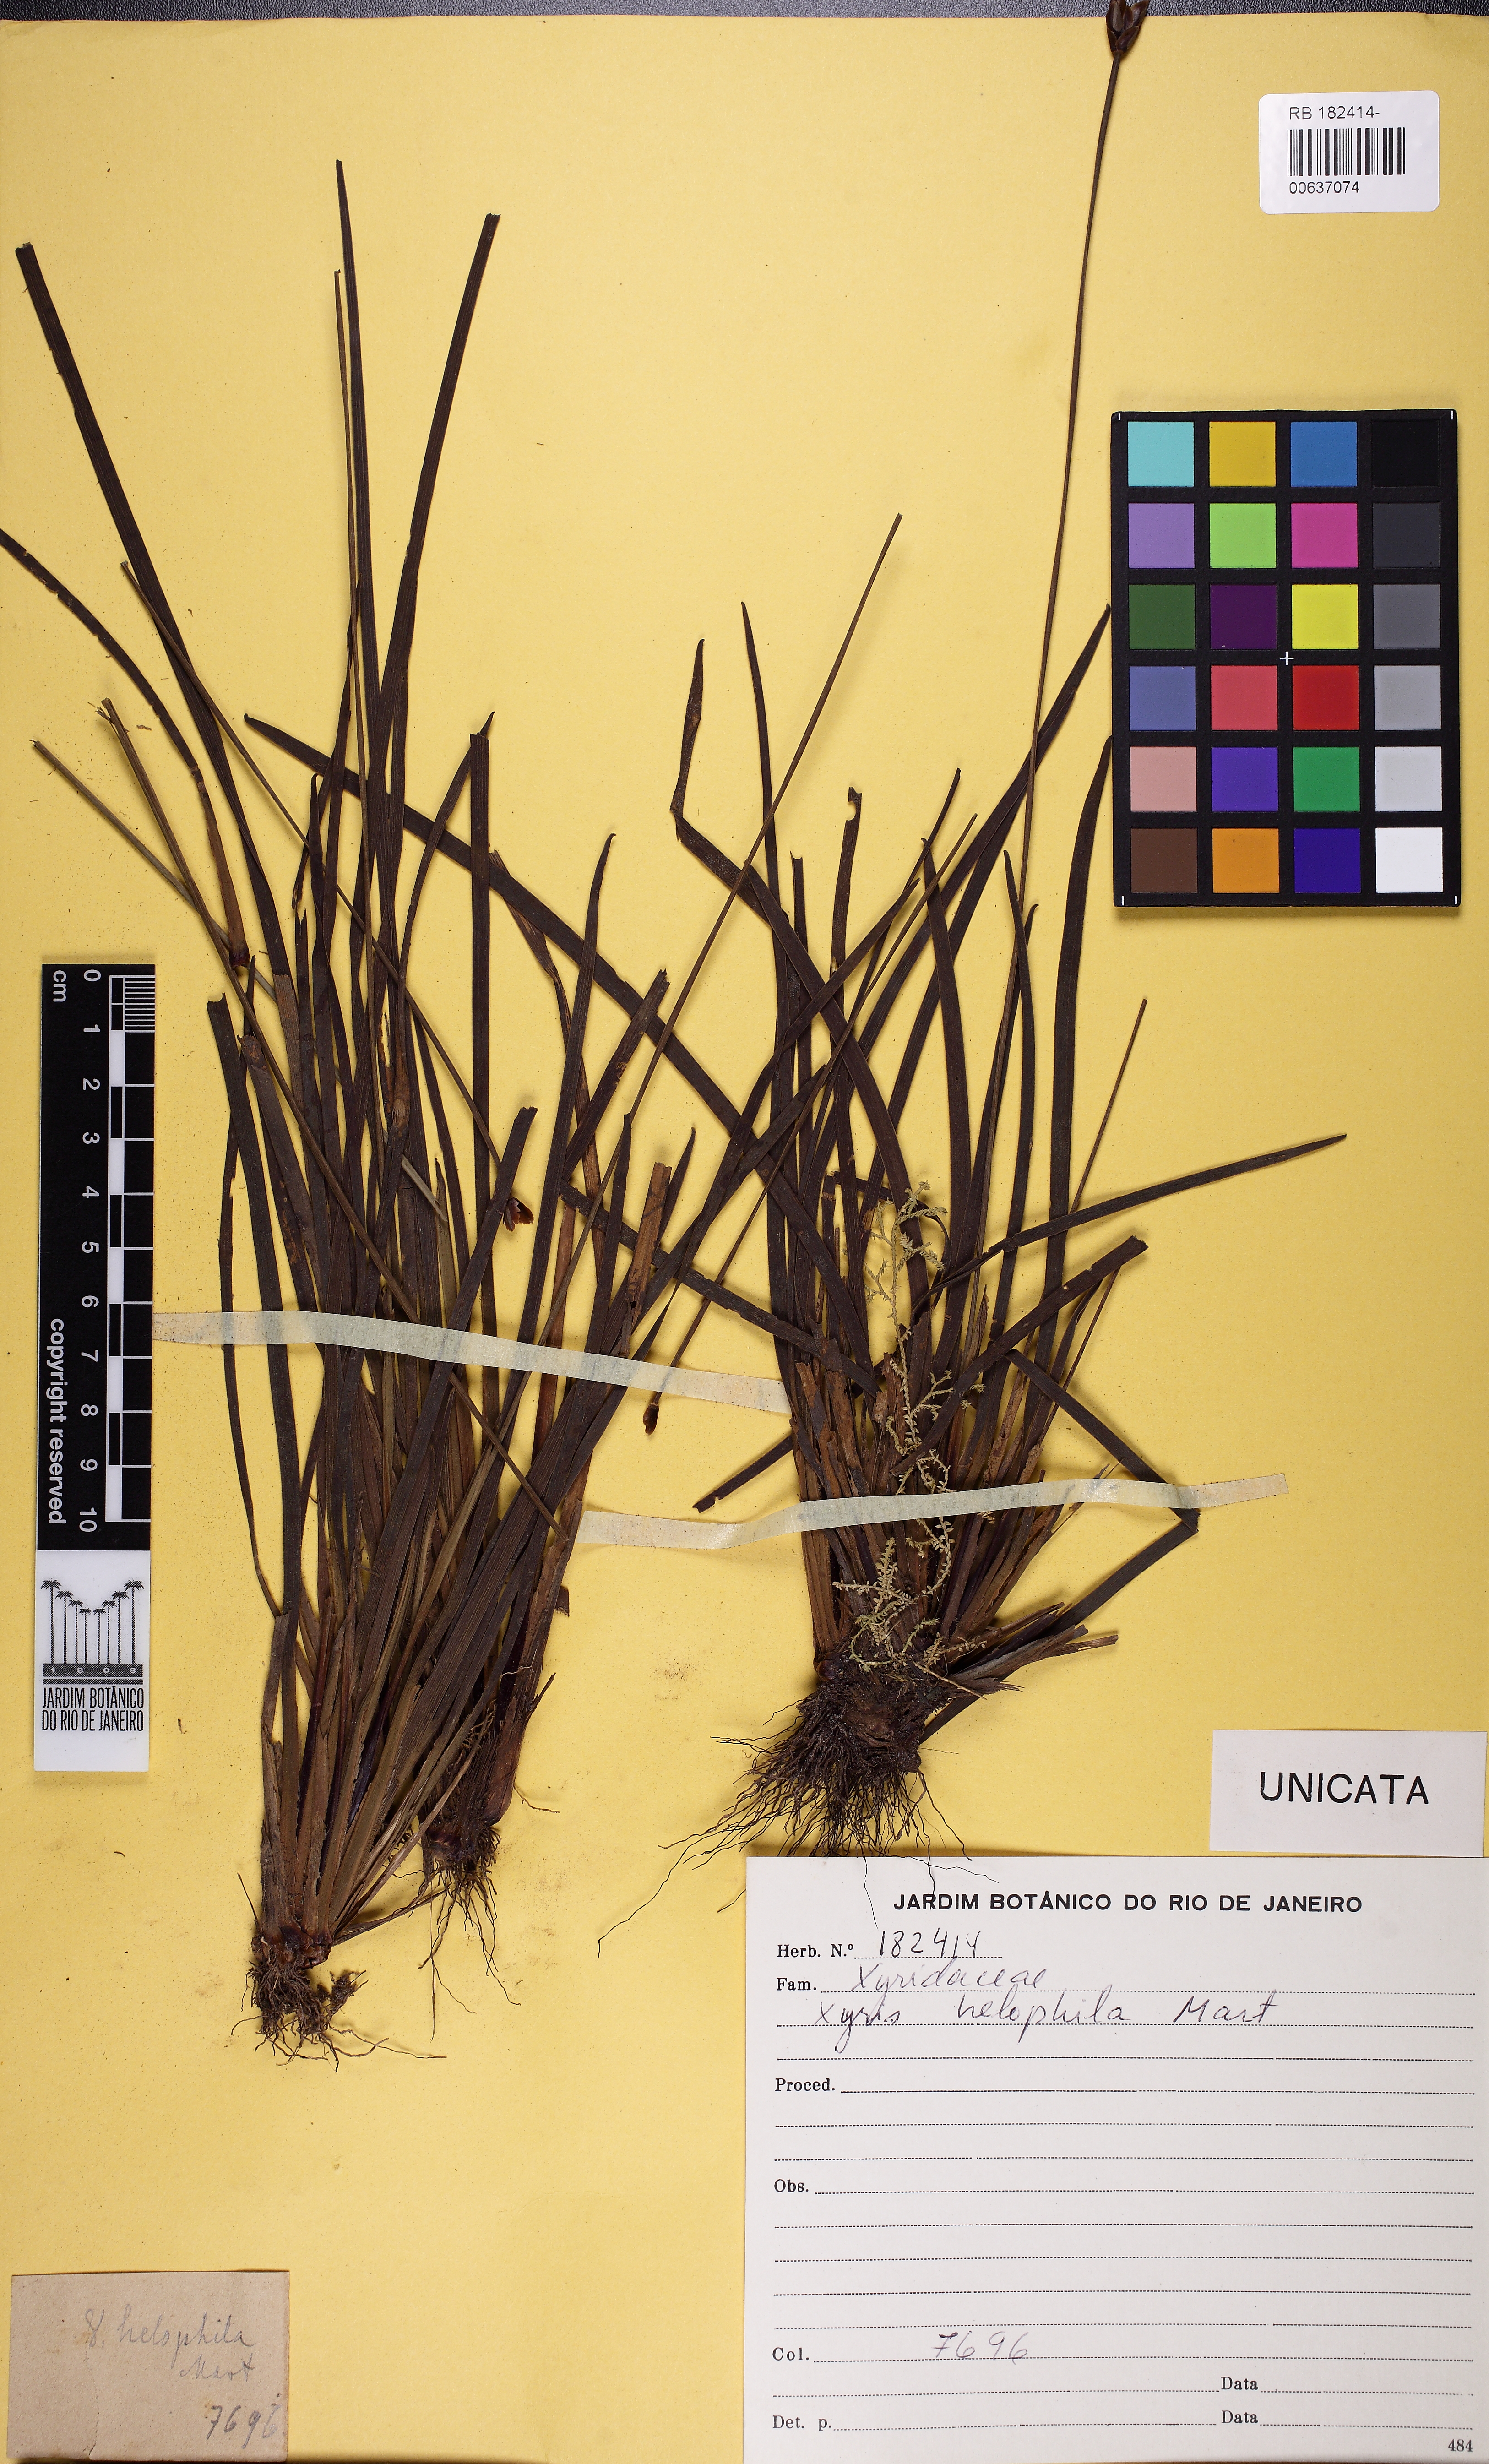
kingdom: Plantae
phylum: Tracheophyta
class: Liliopsida
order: Poales
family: Xyridaceae
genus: Xyris
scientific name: Xyris trachyphylla
